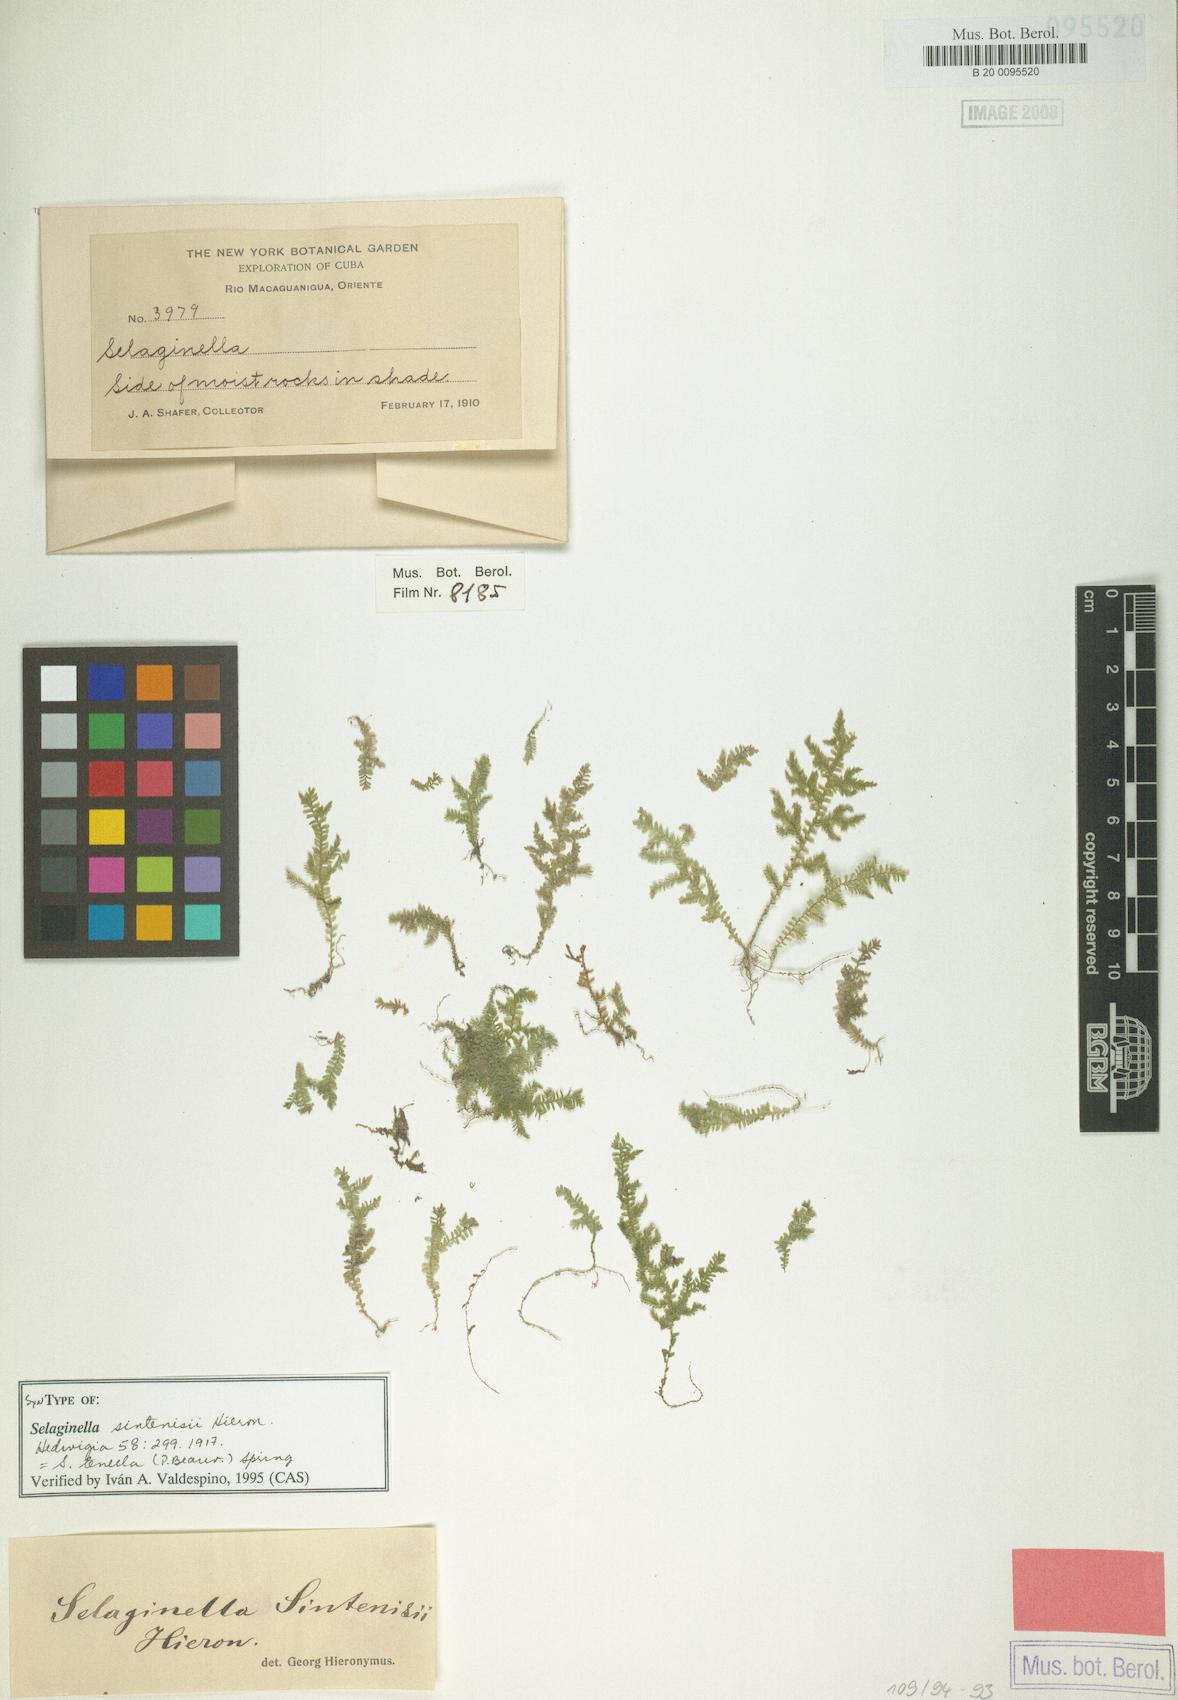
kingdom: Plantae
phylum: Tracheophyta
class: Lycopodiopsida
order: Selaginellales
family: Selaginellaceae
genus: Selaginella
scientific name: Selaginella tenella
